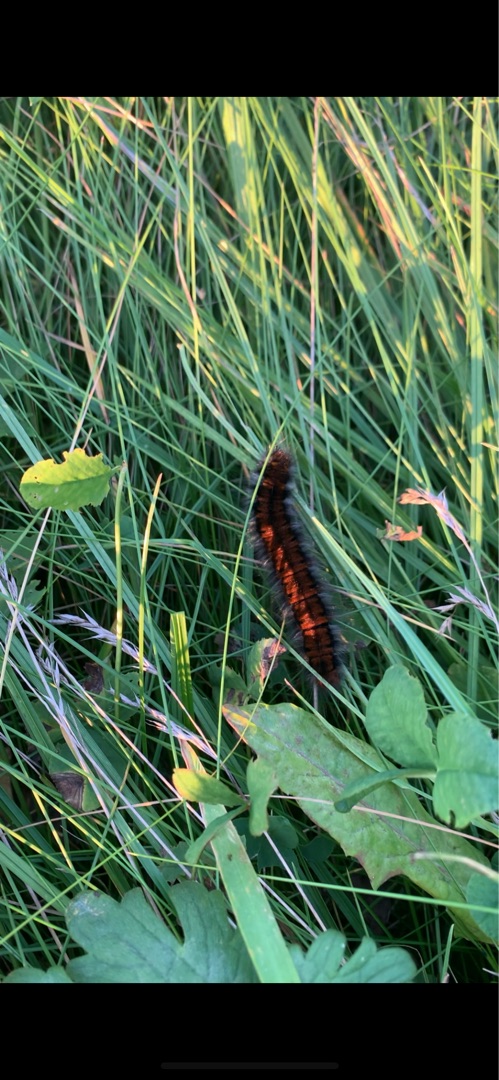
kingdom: Animalia
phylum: Arthropoda
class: Insecta
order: Lepidoptera
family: Lasiocampidae
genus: Macrothylacia
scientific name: Macrothylacia rubi
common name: Brombærspinder
